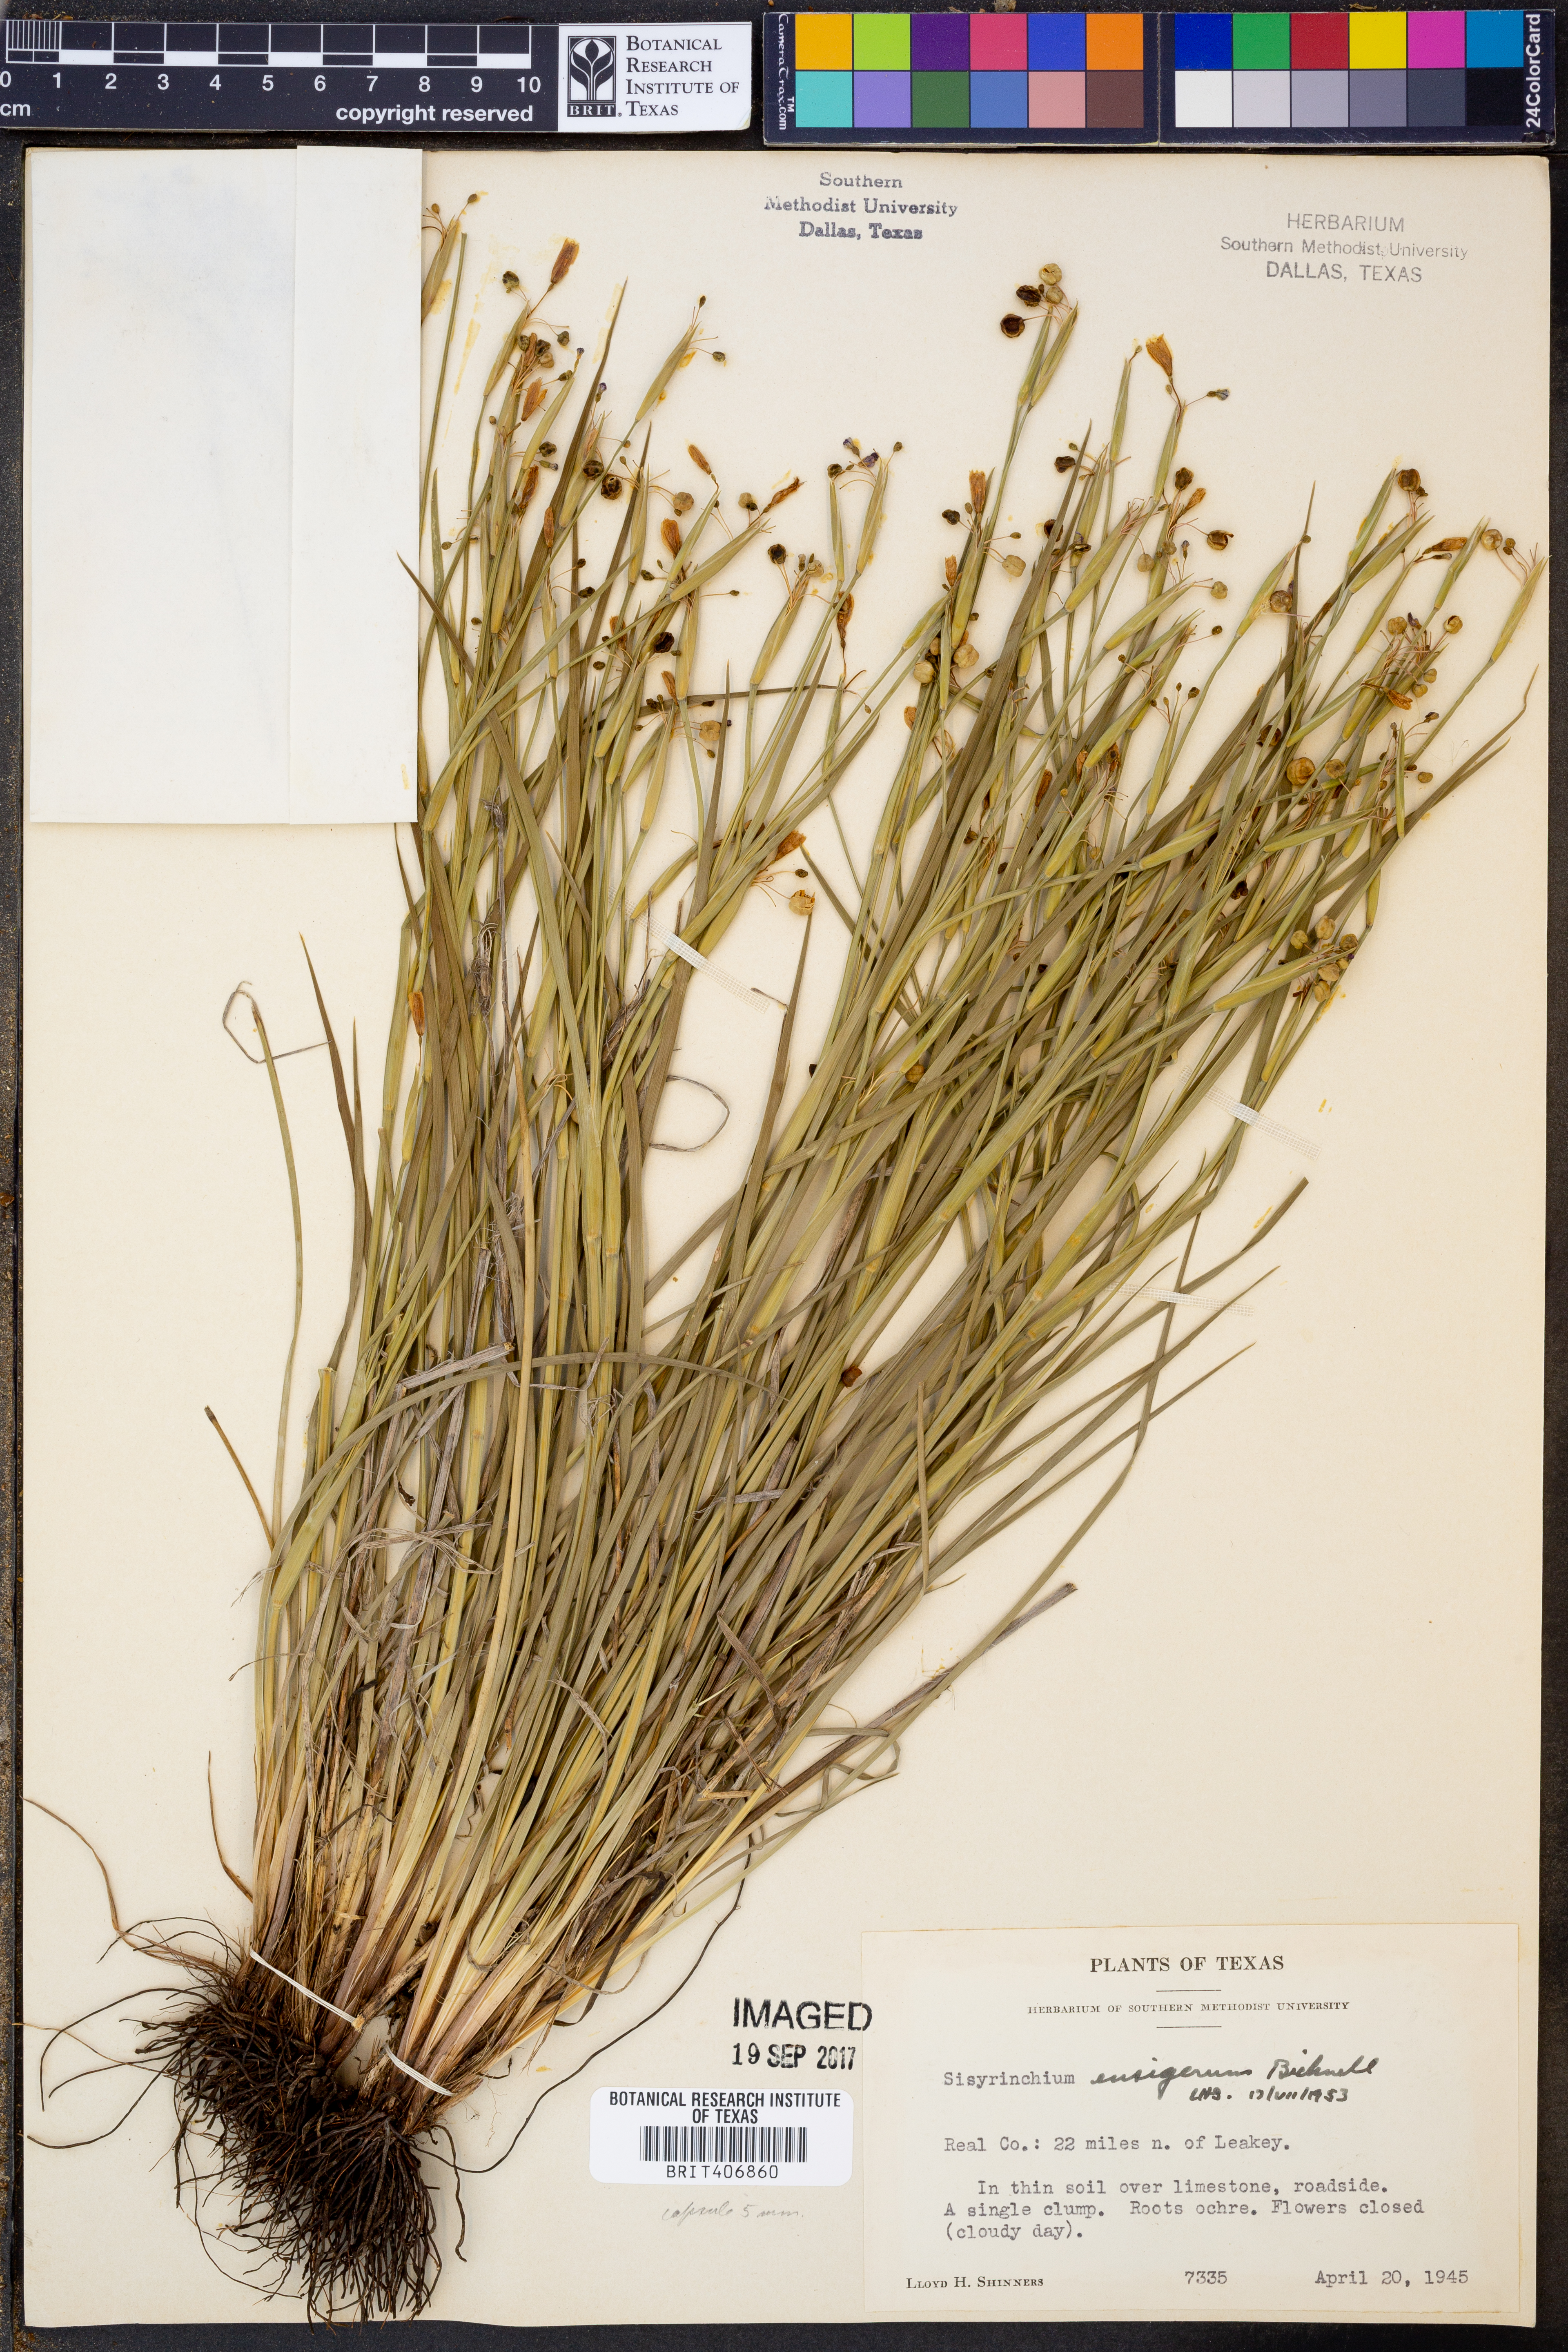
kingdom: Plantae
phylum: Tracheophyta
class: Liliopsida
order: Asparagales
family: Iridaceae
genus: Sisyrinchium
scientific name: Sisyrinchium ensigerum
